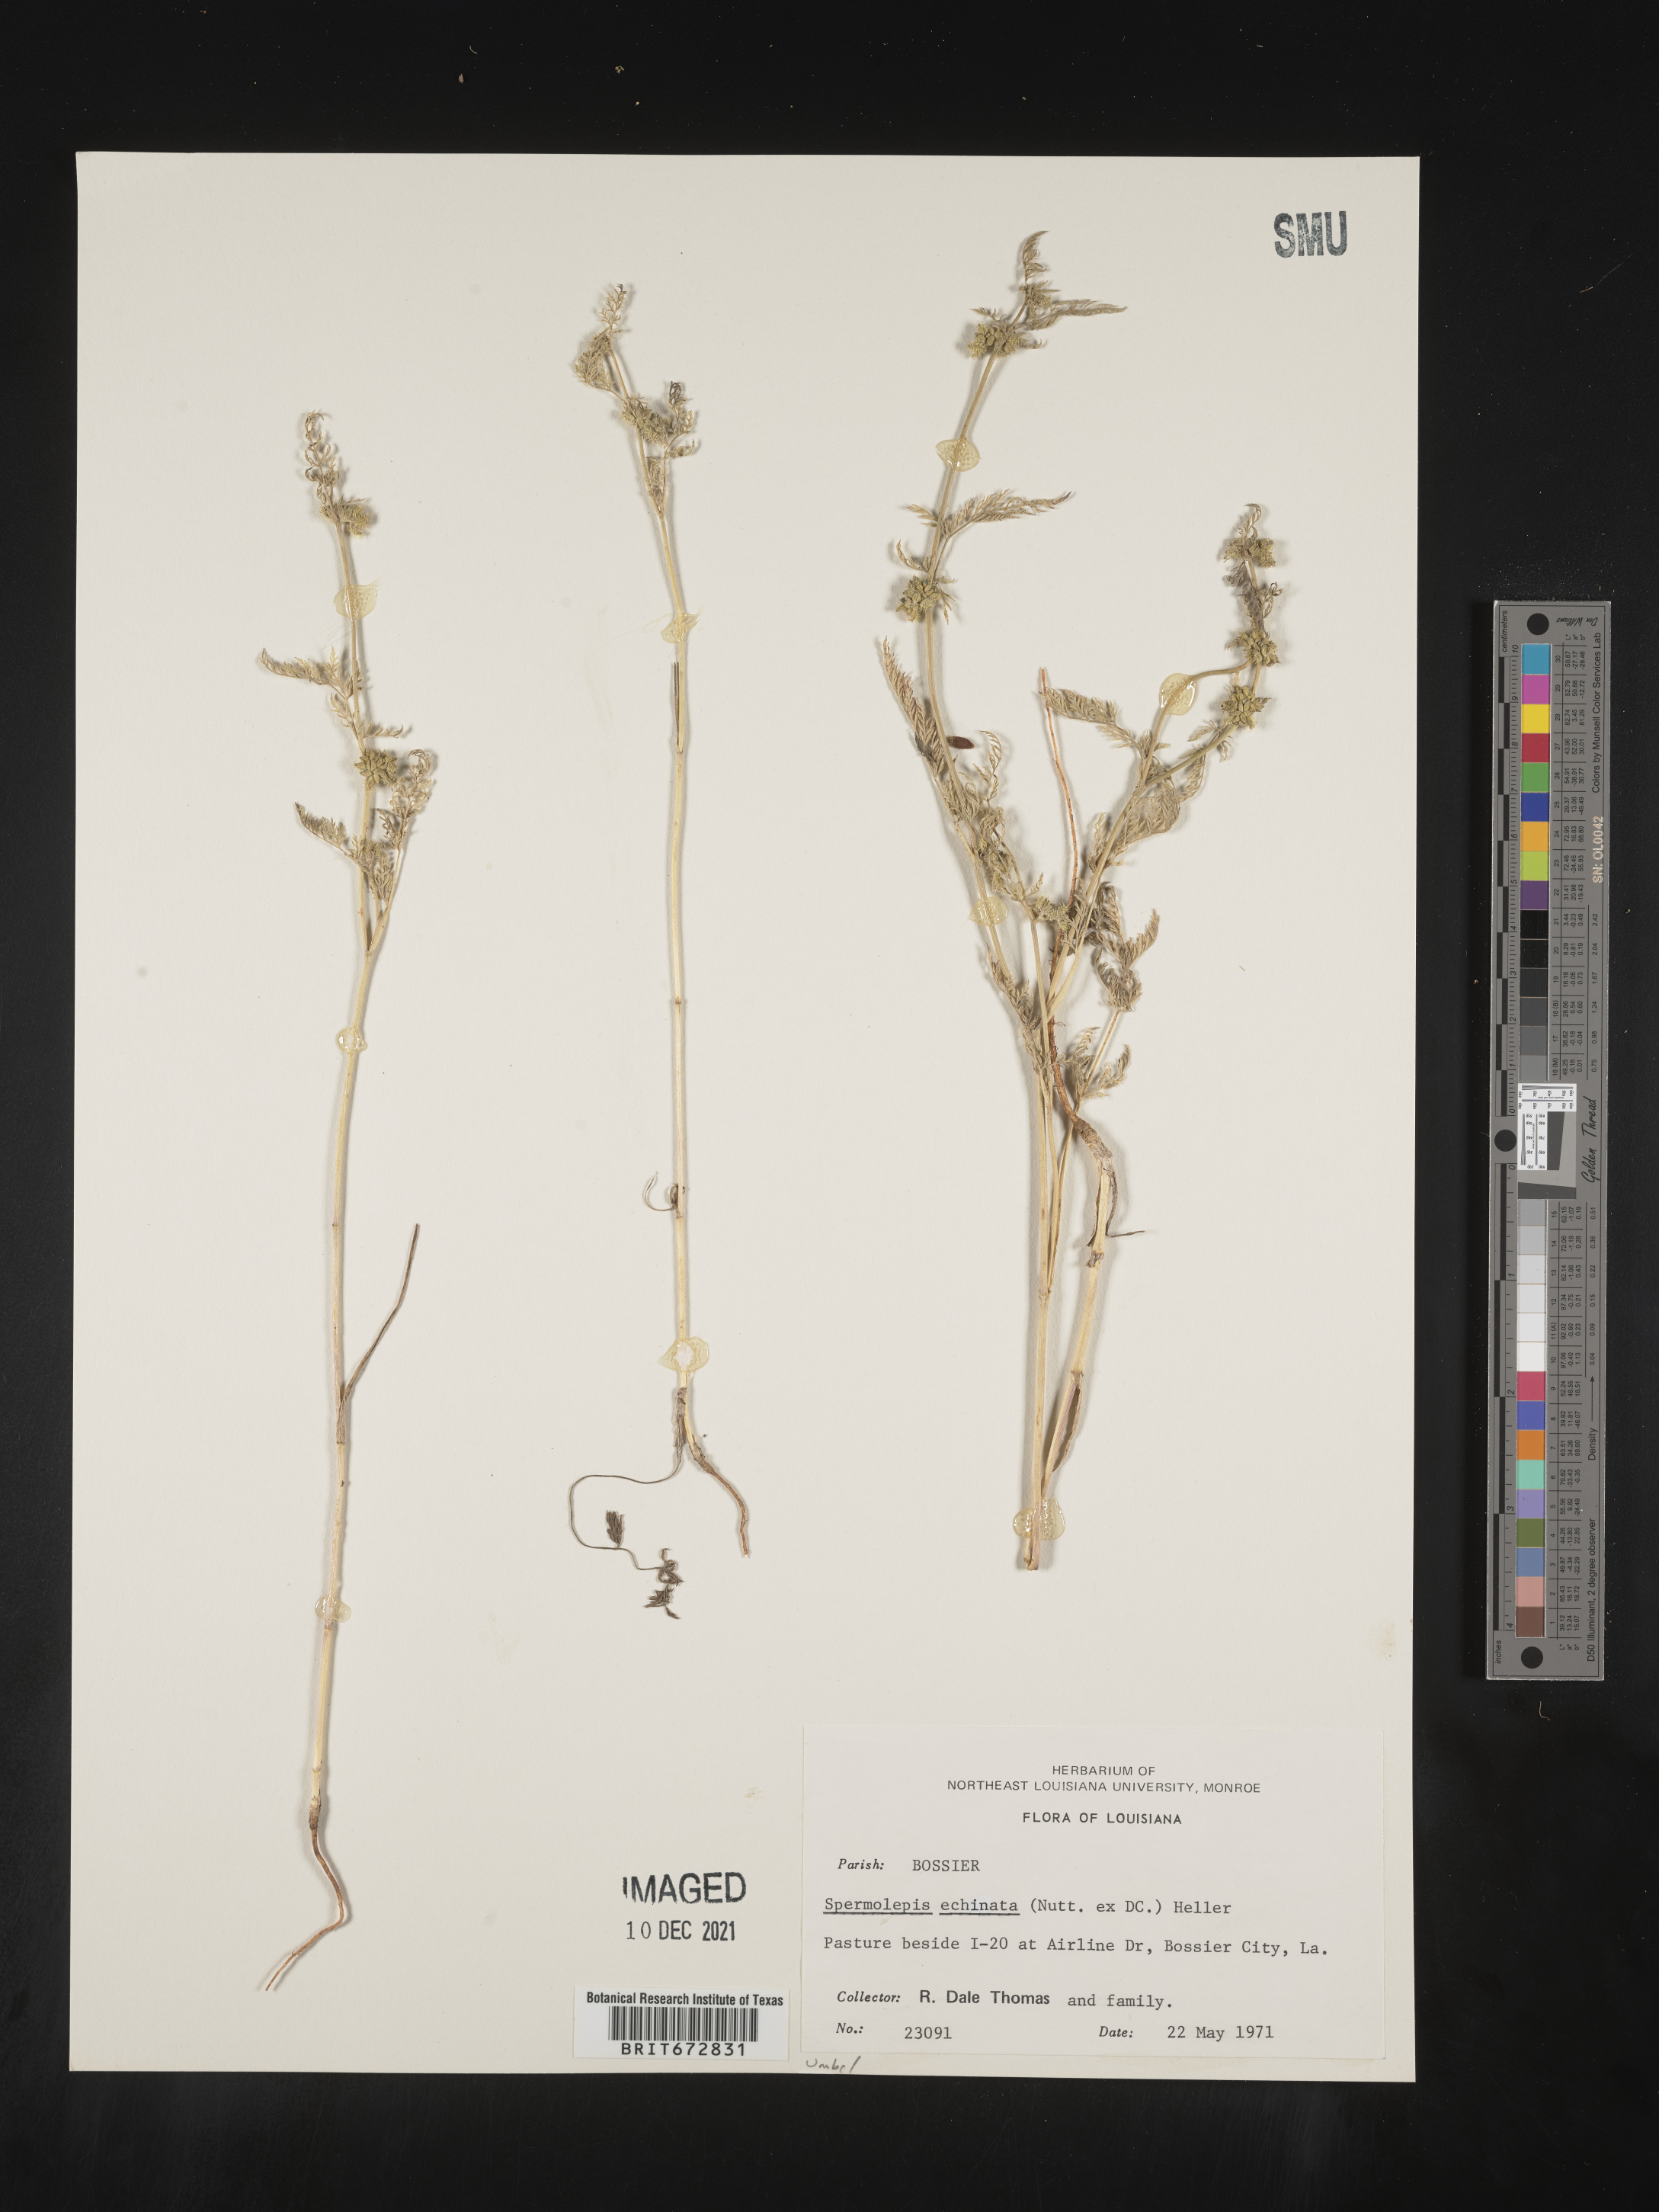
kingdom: Plantae
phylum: Tracheophyta
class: Magnoliopsida
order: Apiales
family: Apiaceae
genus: Spermolepis
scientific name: Spermolepis echinata
